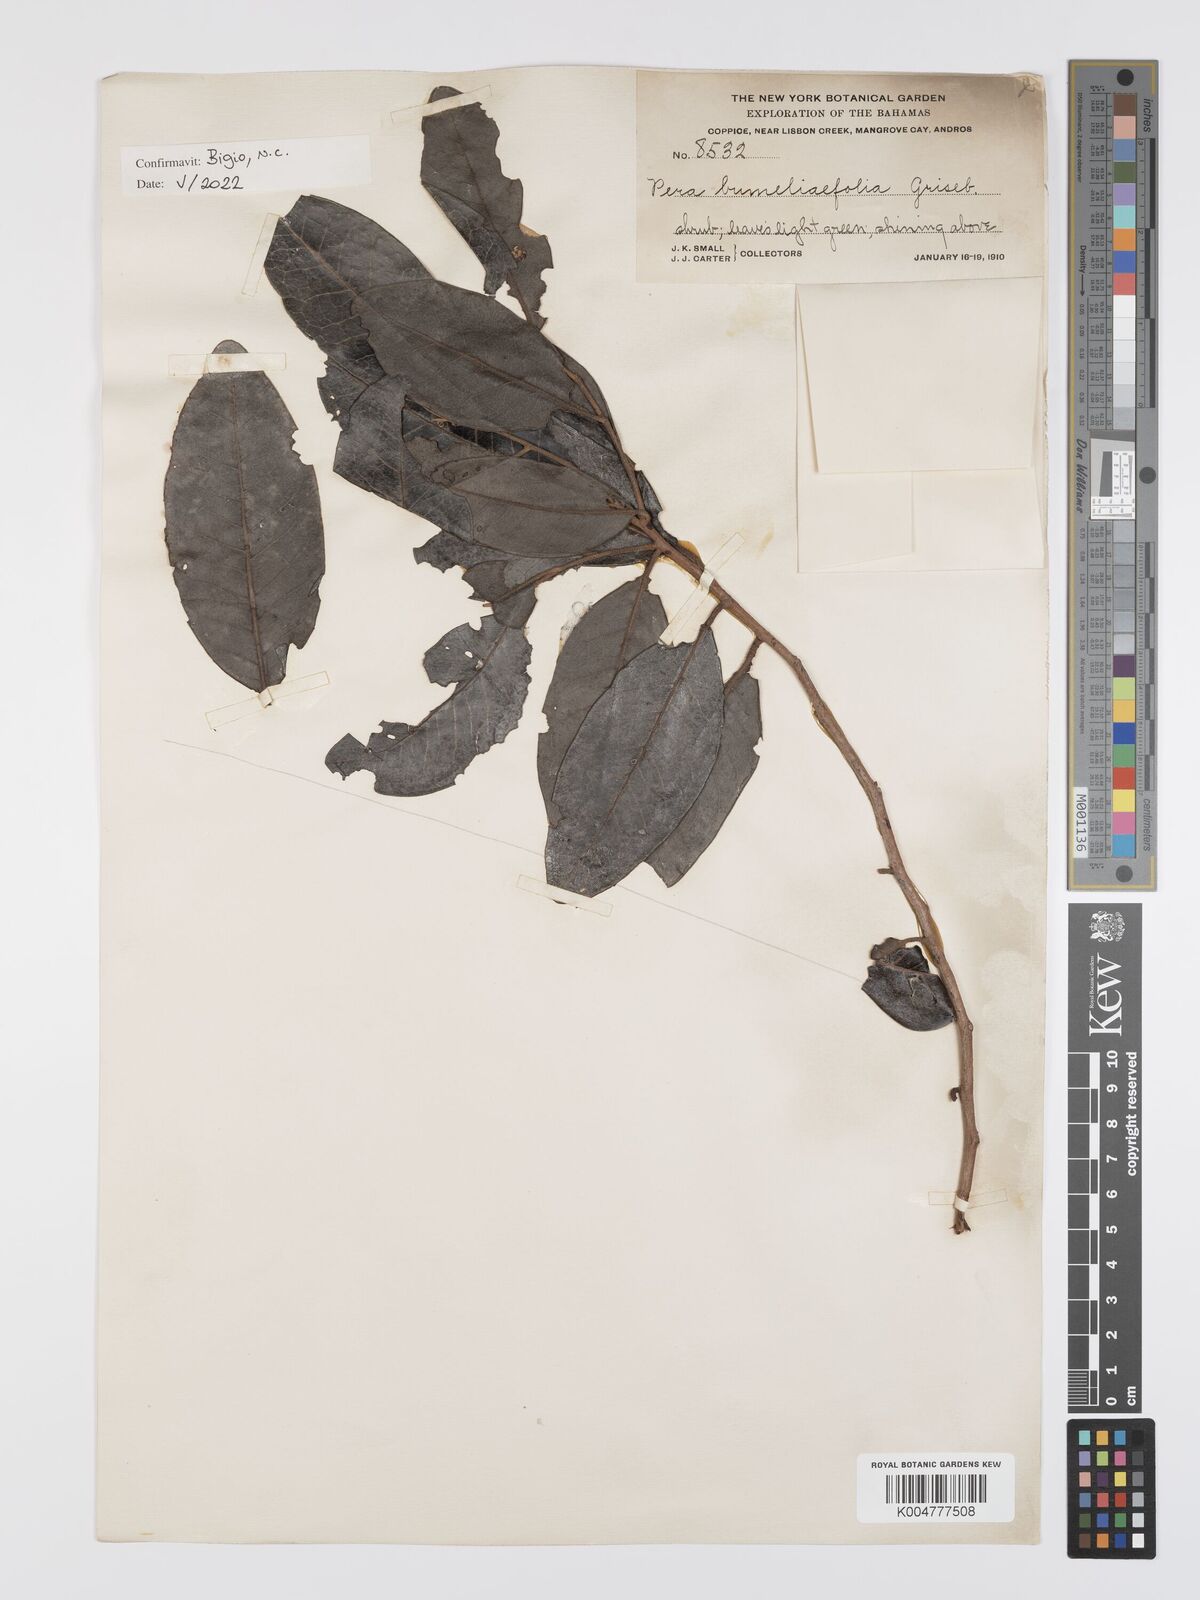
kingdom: Plantae
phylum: Tracheophyta
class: Magnoliopsida
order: Malpighiales
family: Peraceae
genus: Pera
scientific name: Pera
